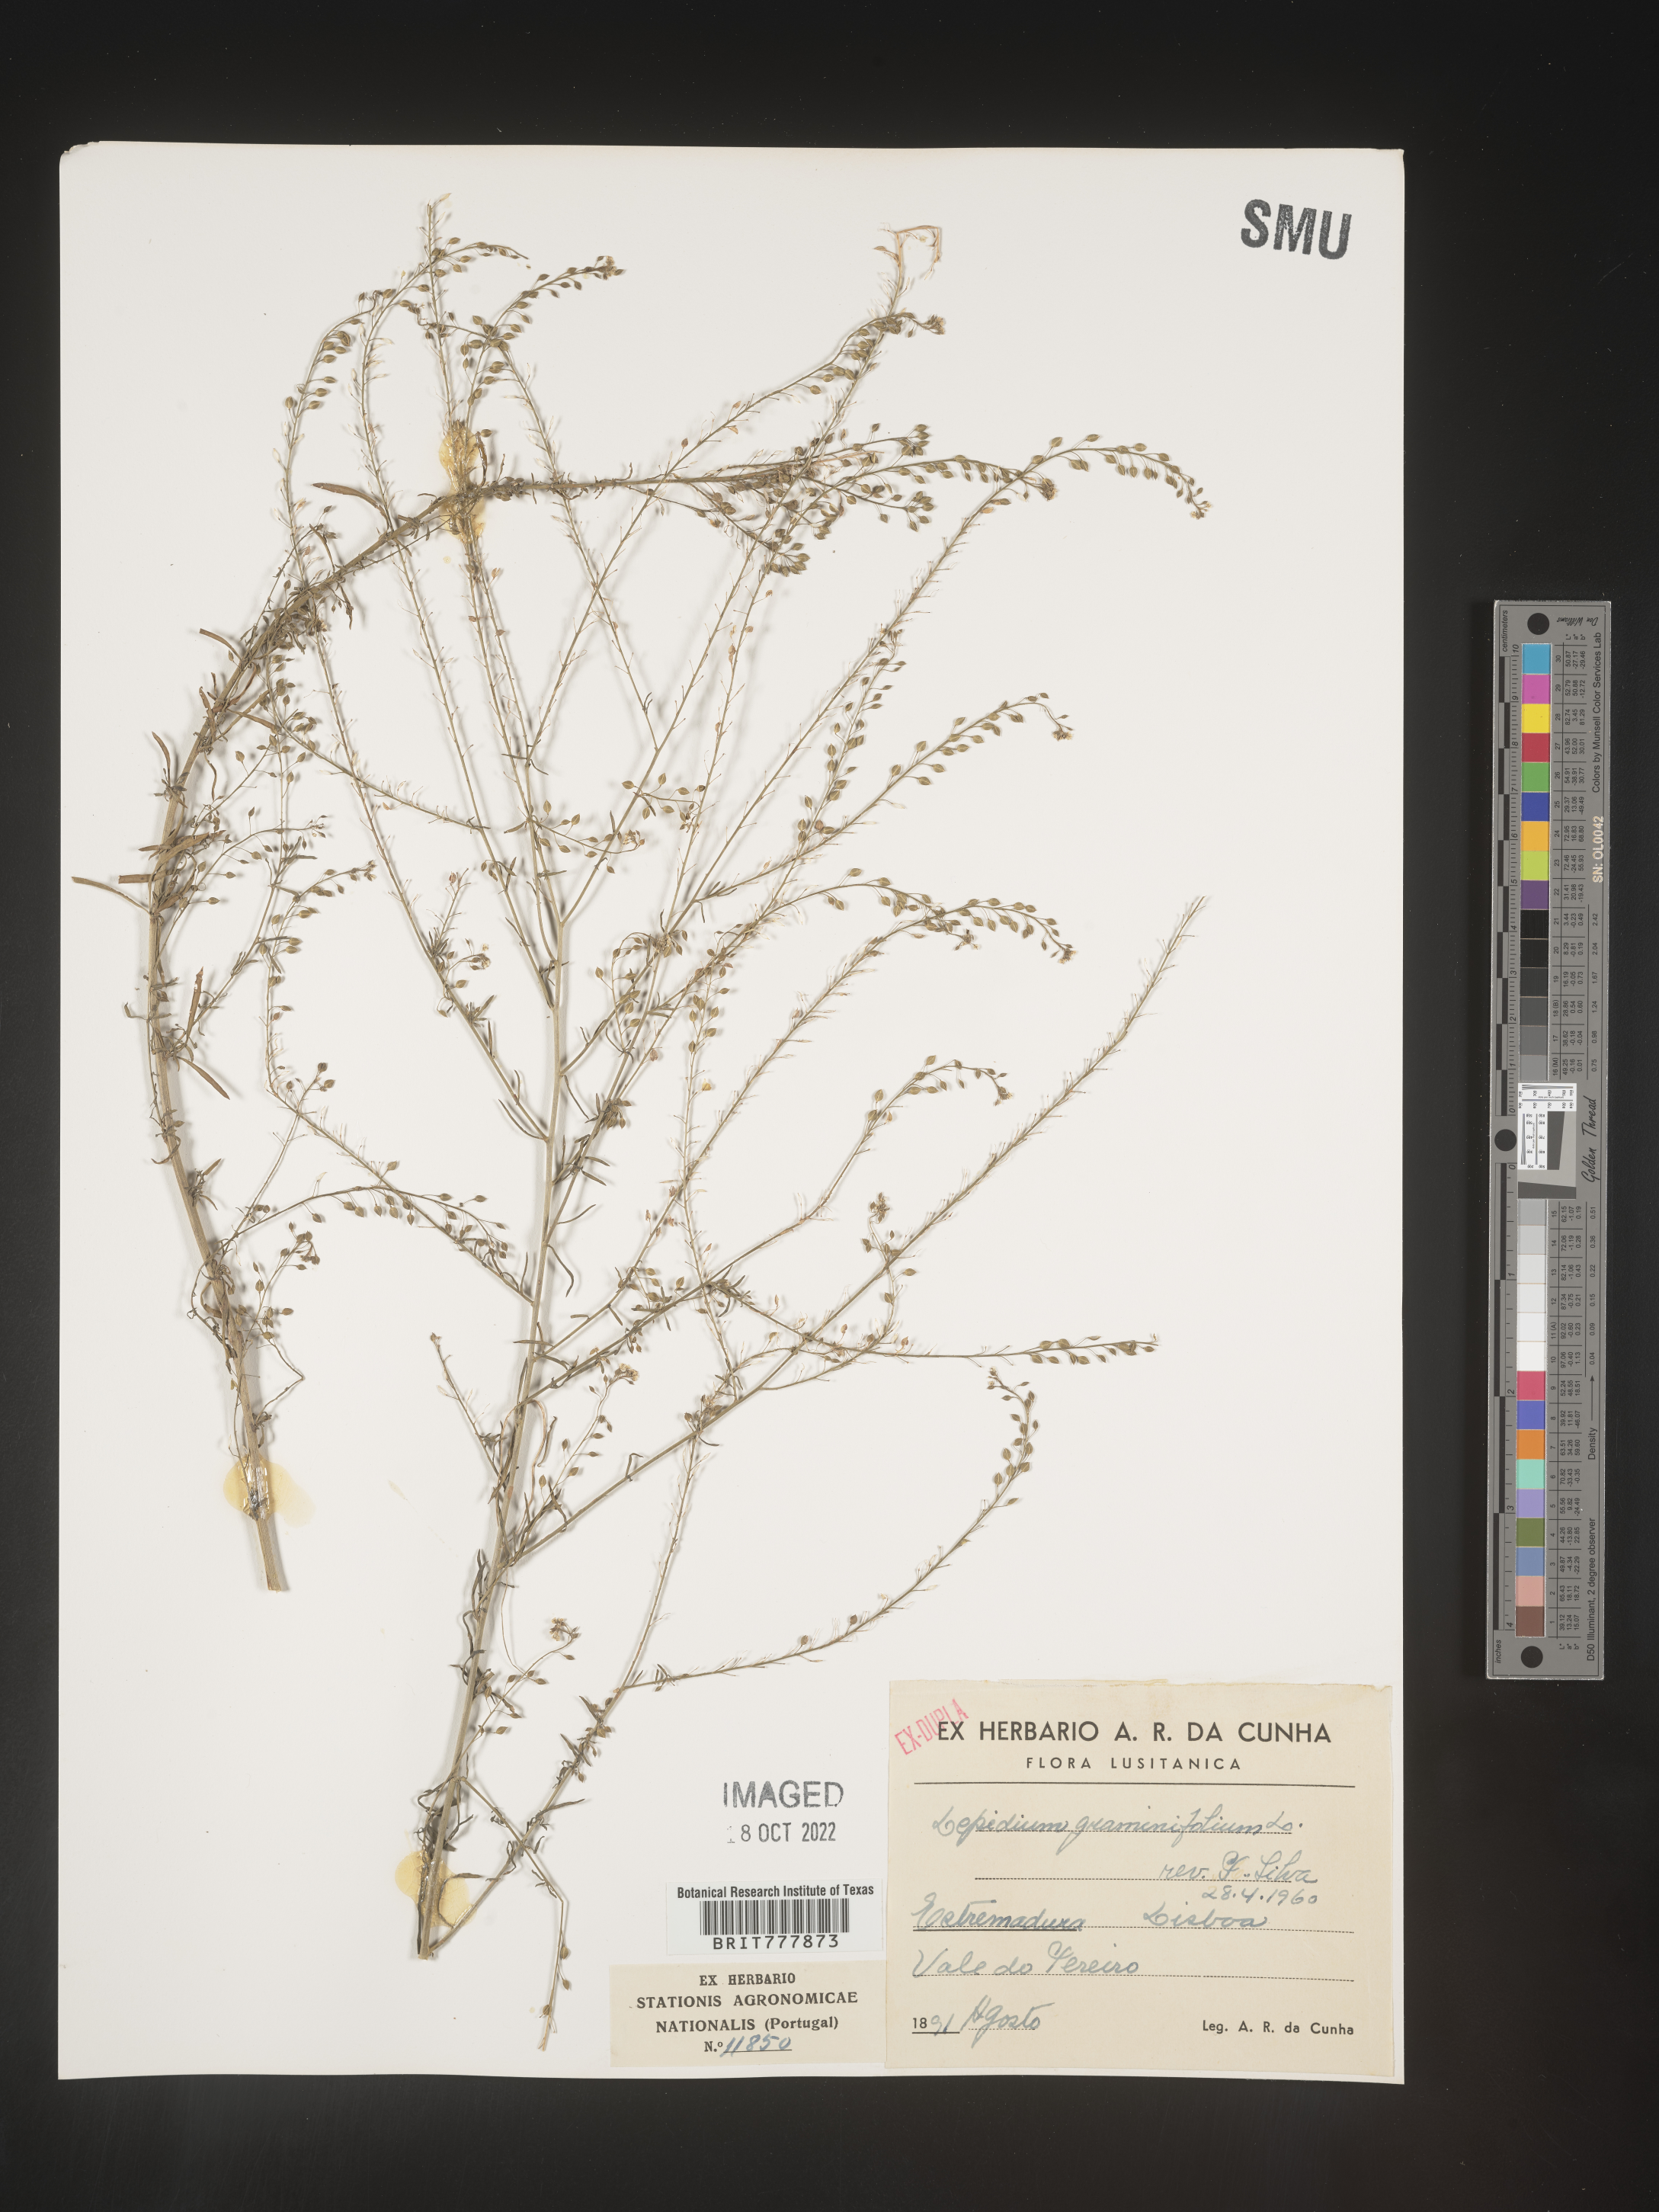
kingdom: Plantae
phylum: Tracheophyta
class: Magnoliopsida
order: Brassicales
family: Brassicaceae
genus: Lepidium
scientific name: Lepidium
